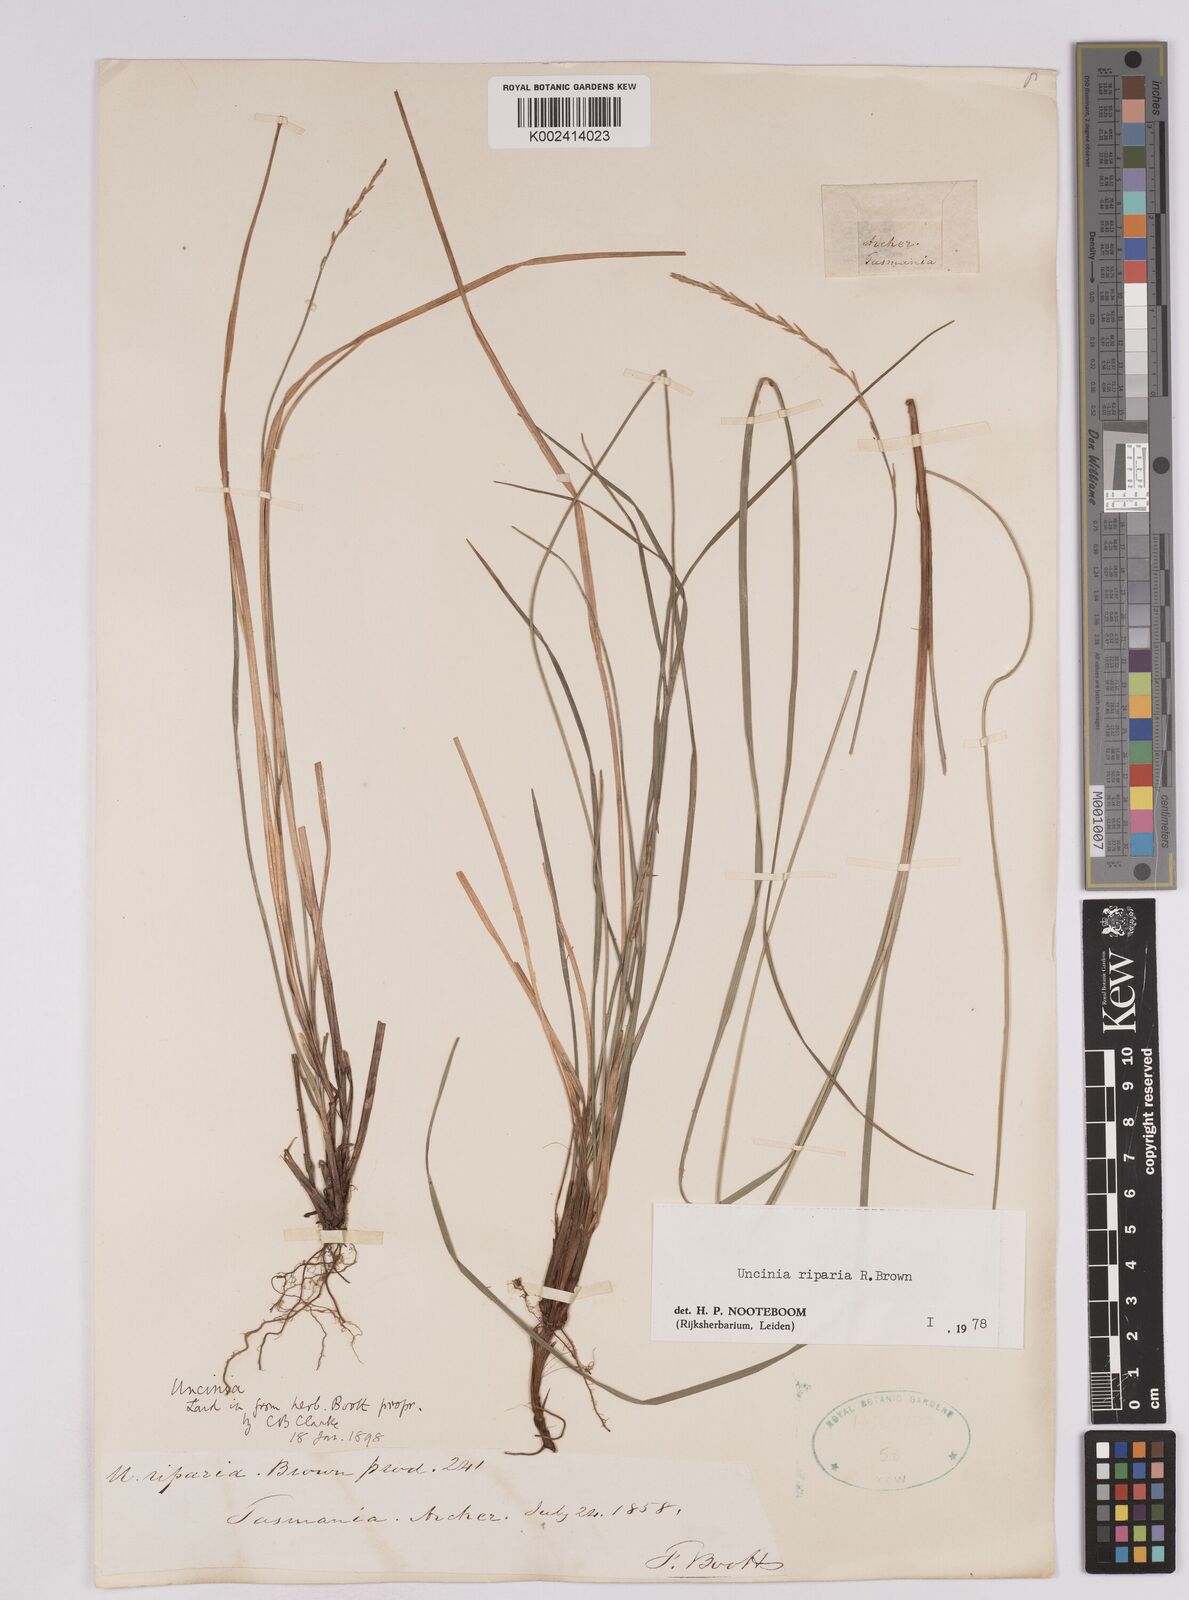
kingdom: Plantae
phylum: Tracheophyta
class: Liliopsida
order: Poales
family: Cyperaceae
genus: Carex
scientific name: Carex umbricola
